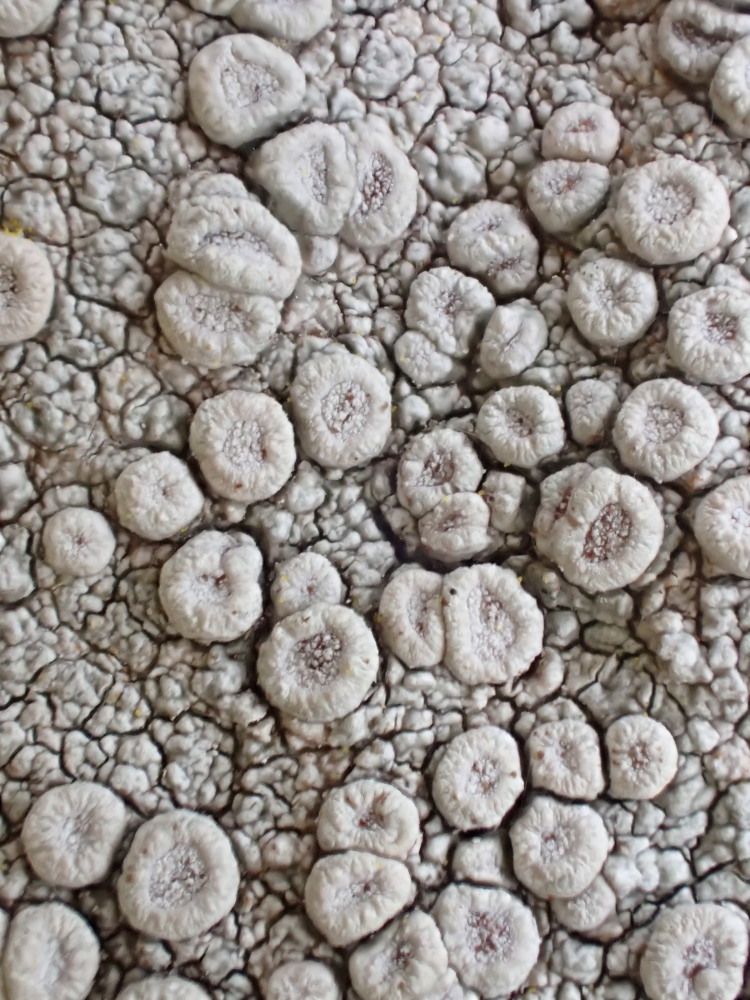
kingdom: Fungi
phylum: Ascomycota
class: Lecanoromycetes
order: Pertusariales
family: Ochrolechiaceae
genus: Ochrolechia
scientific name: Ochrolechia parella
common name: almindelig blegskivelav
